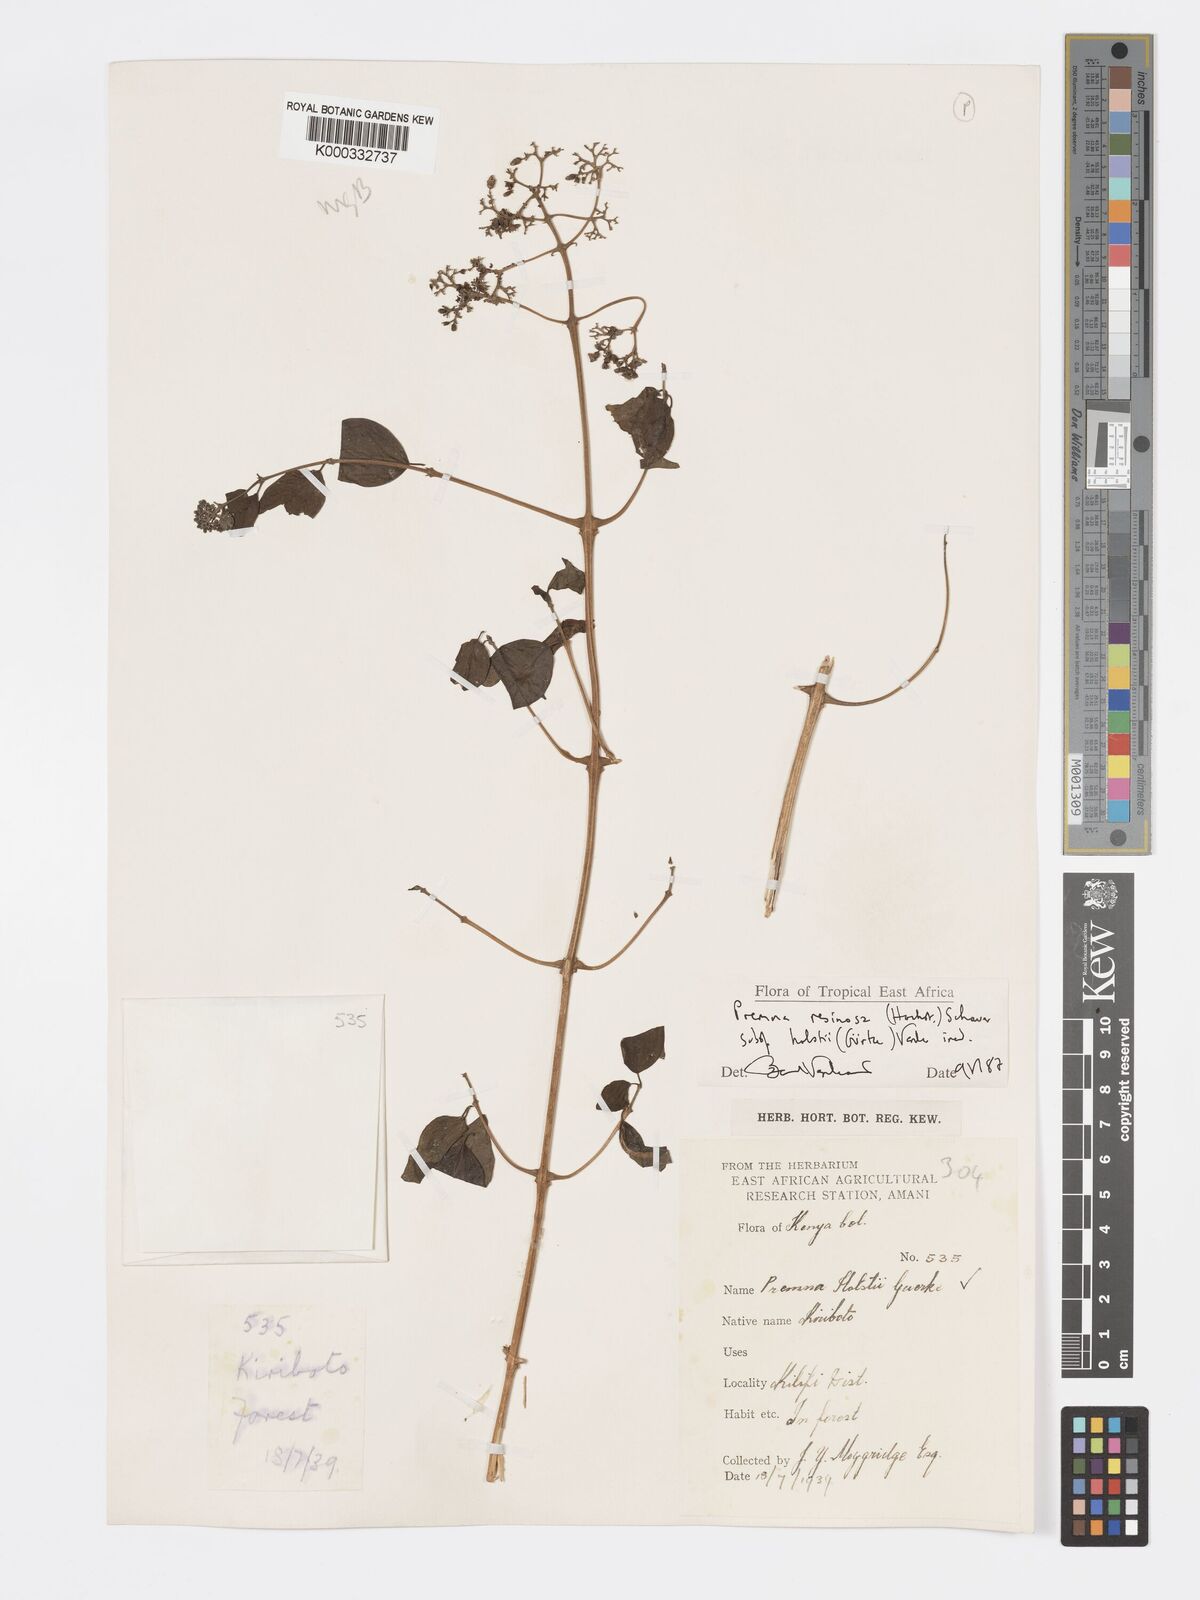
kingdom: Plantae
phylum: Tracheophyta
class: Magnoliopsida
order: Lamiales
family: Lamiaceae
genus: Premna
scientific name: Premna resinosa
